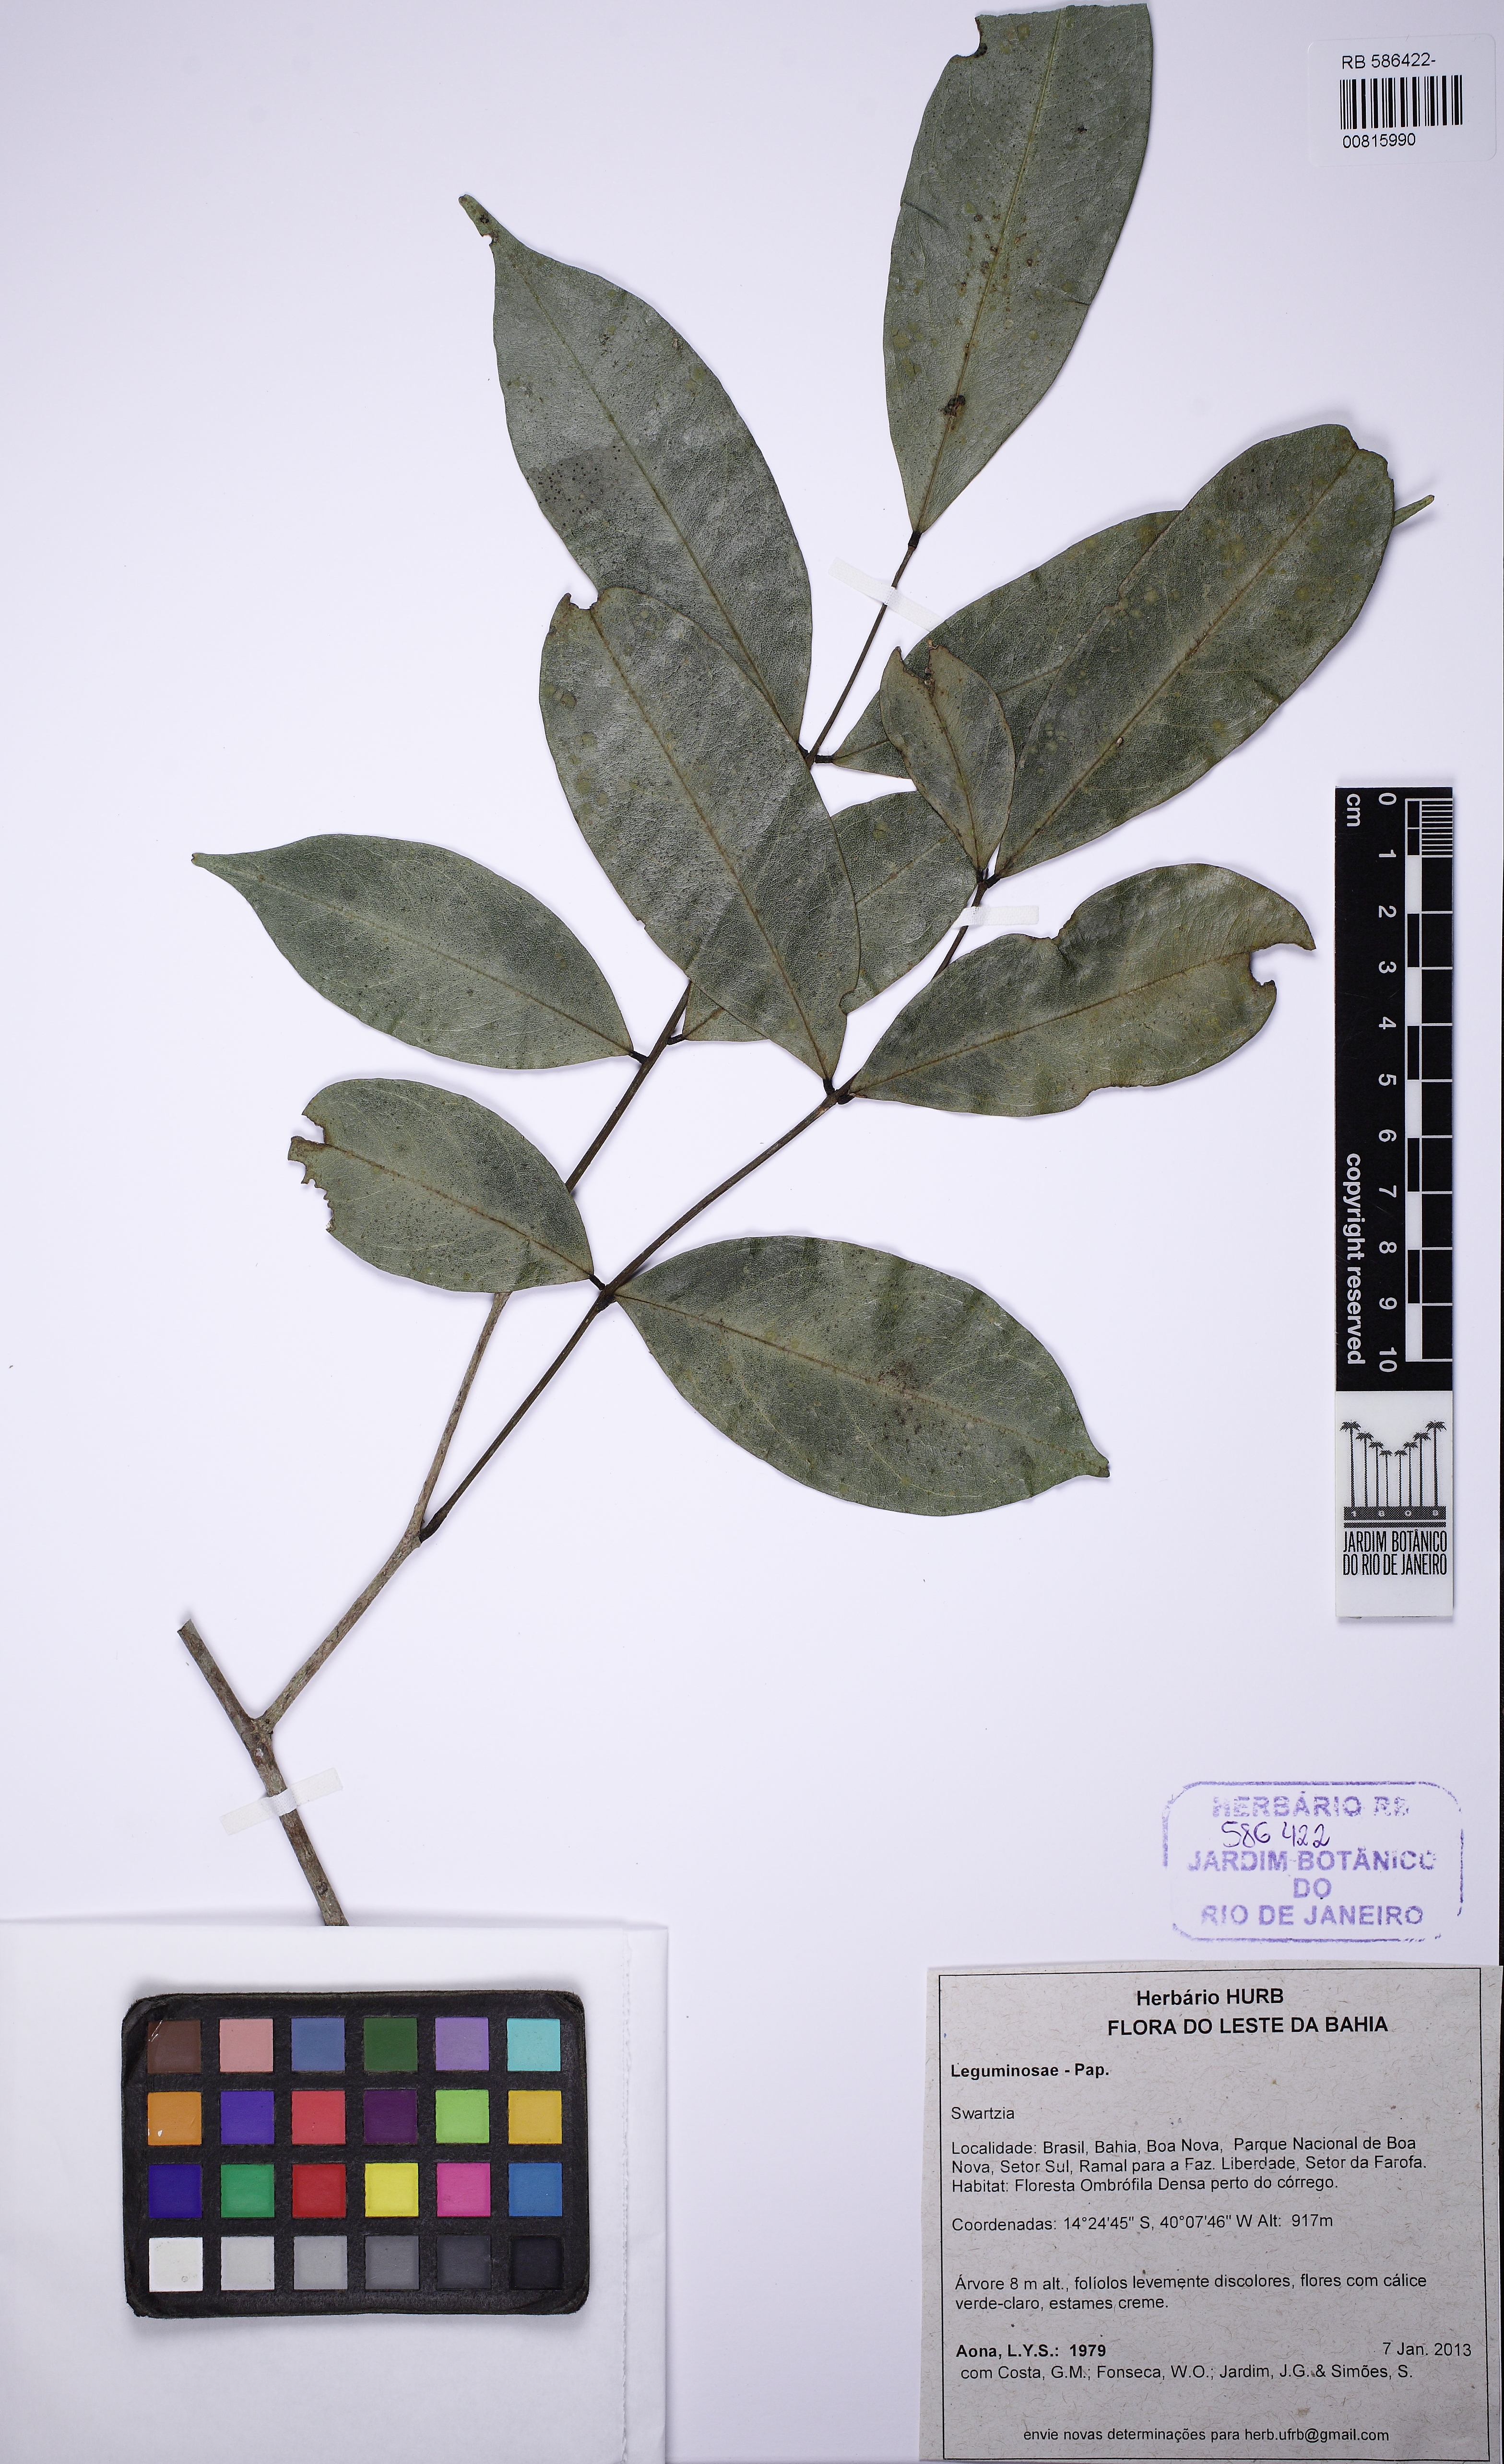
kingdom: Plantae
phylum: Tracheophyta
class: Magnoliopsida
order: Fabales
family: Fabaceae
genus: Swartzia
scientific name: Swartzia apetala
